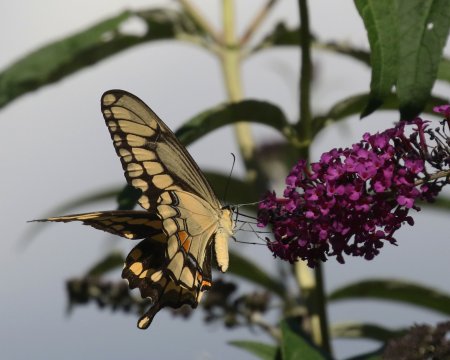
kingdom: Animalia
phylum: Arthropoda
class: Insecta
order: Lepidoptera
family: Papilionidae
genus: Papilio
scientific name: Papilio cresphontes
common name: Eastern Giant Swallowtail
